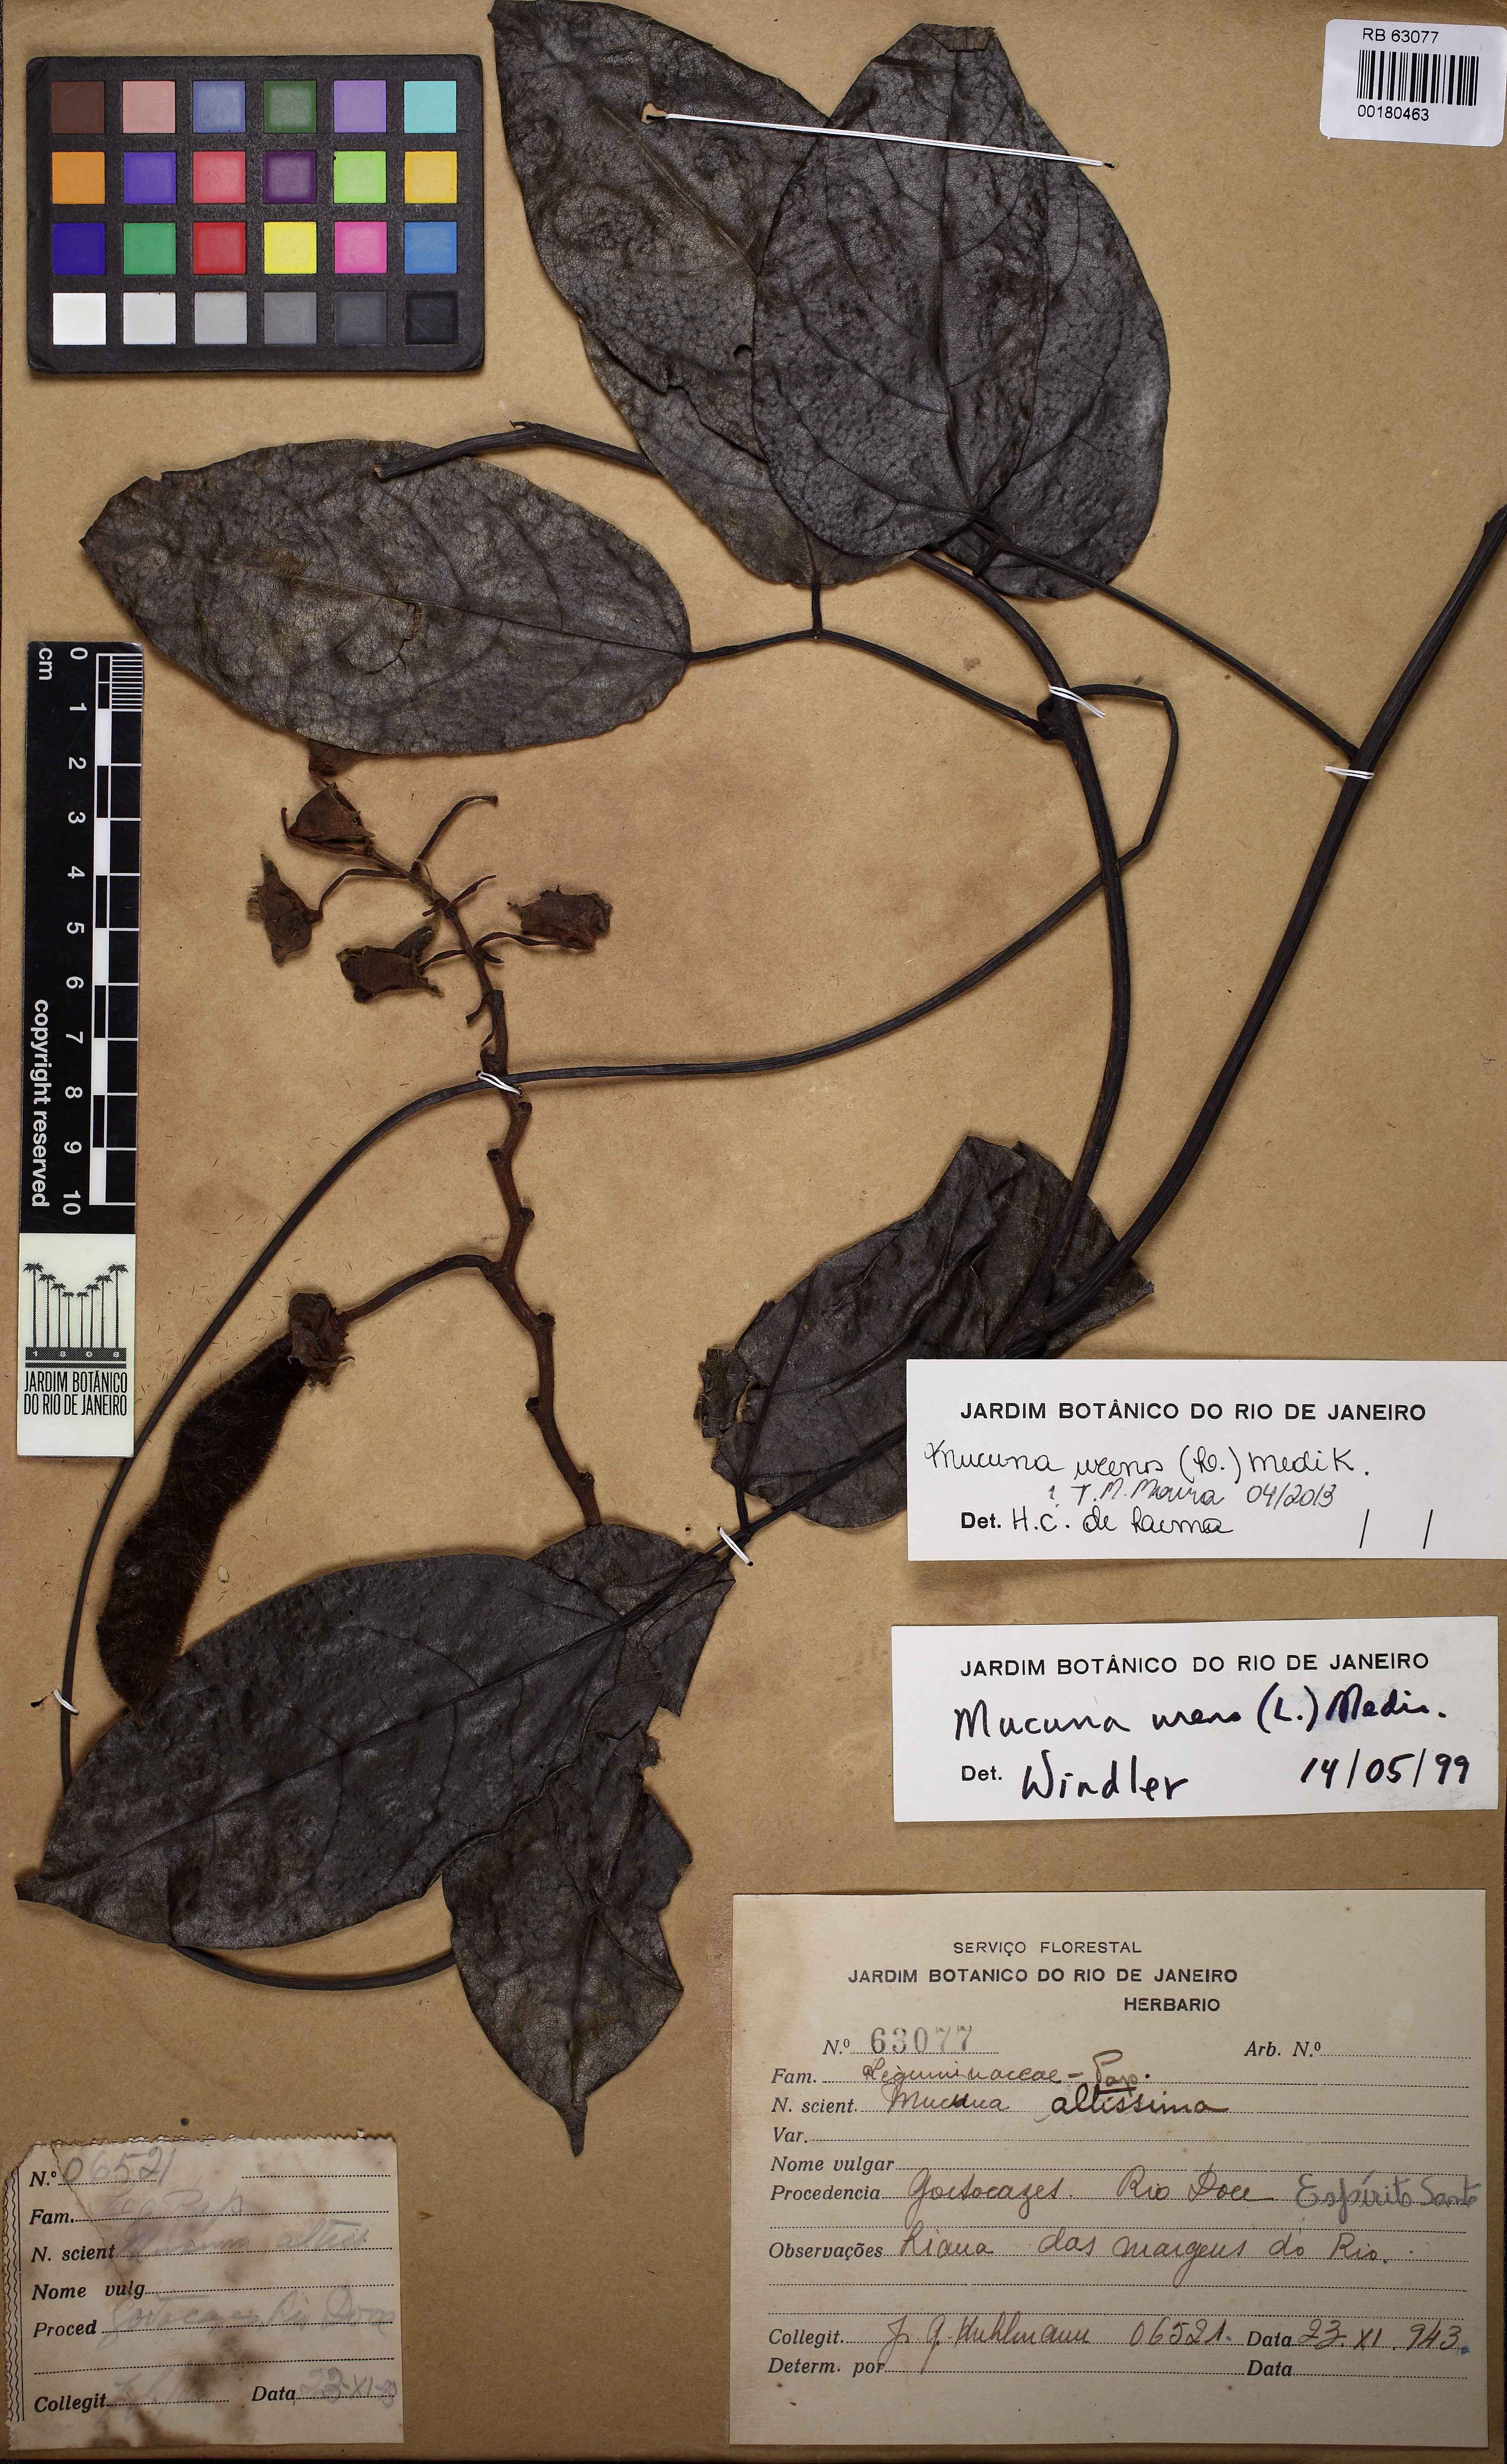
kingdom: Plantae
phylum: Tracheophyta
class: Magnoliopsida
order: Fabales
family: Fabaceae
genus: Mucuna
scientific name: Mucuna urens
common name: Red hamburger bean
